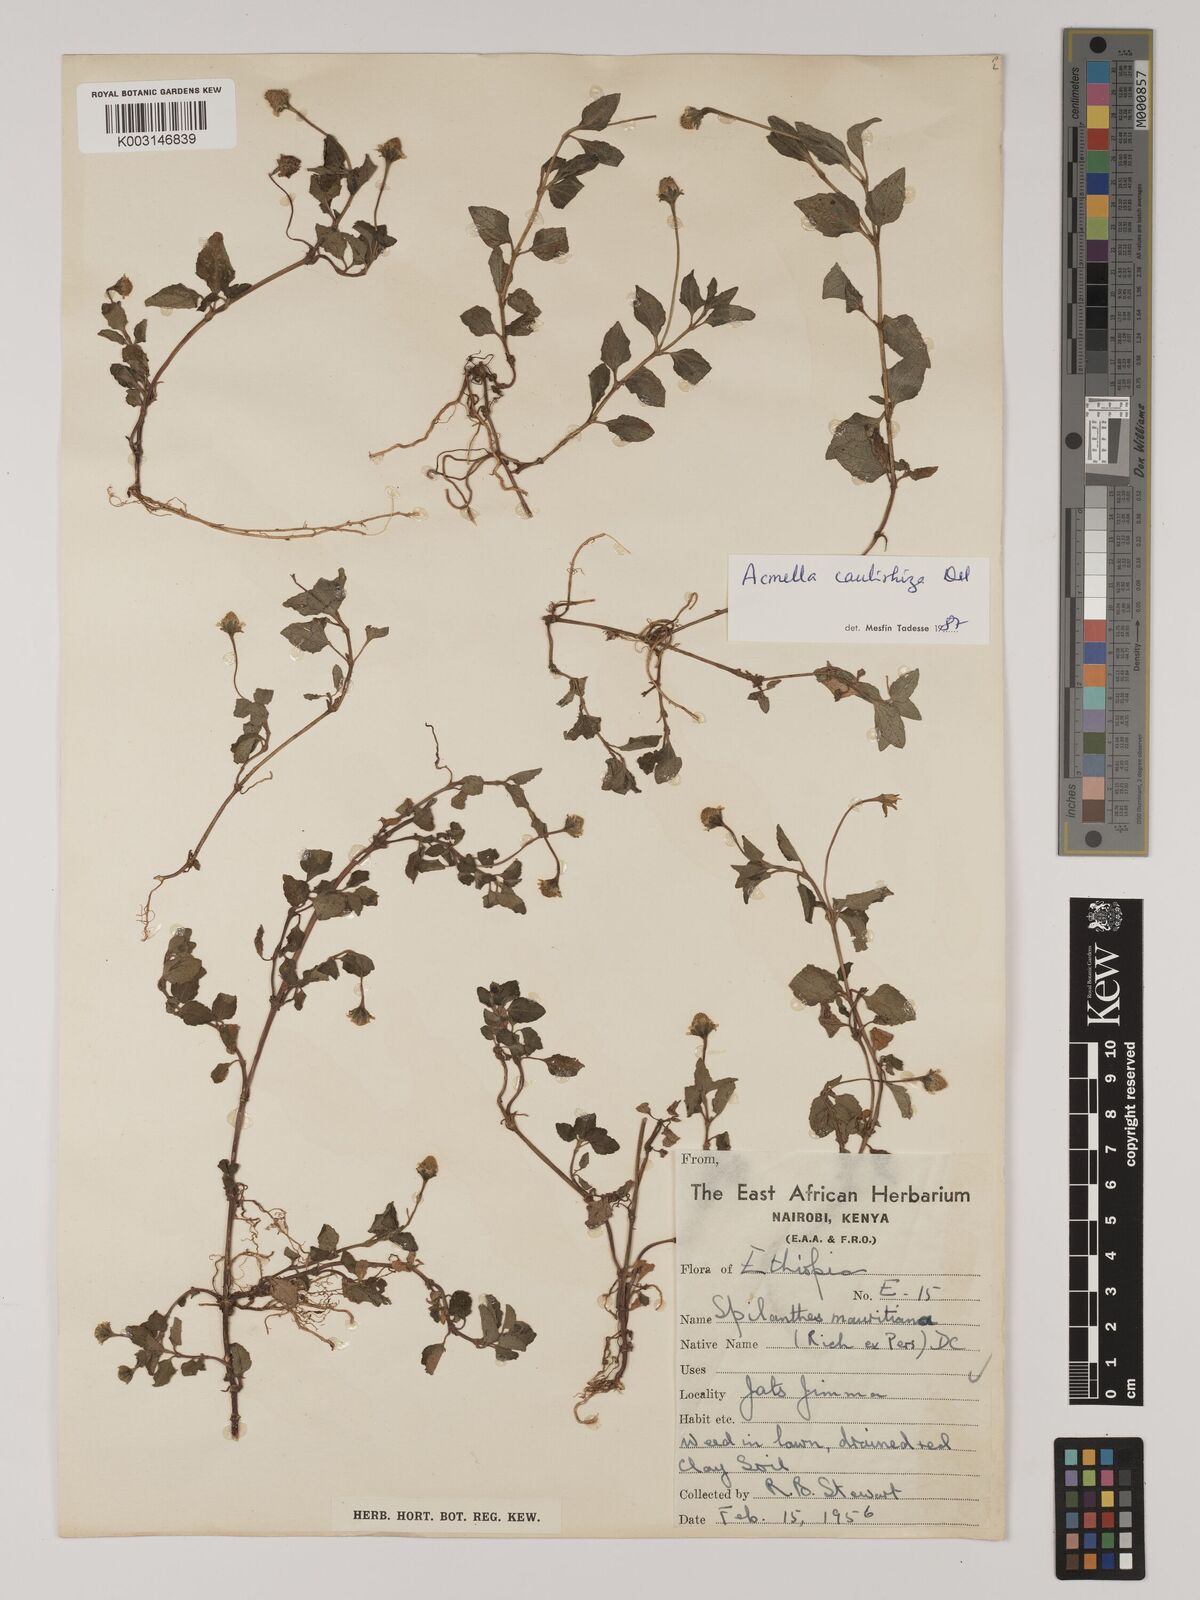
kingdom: Plantae
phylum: Tracheophyta
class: Magnoliopsida
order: Asterales
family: Asteraceae
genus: Acmella
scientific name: Acmella caulirhiza
